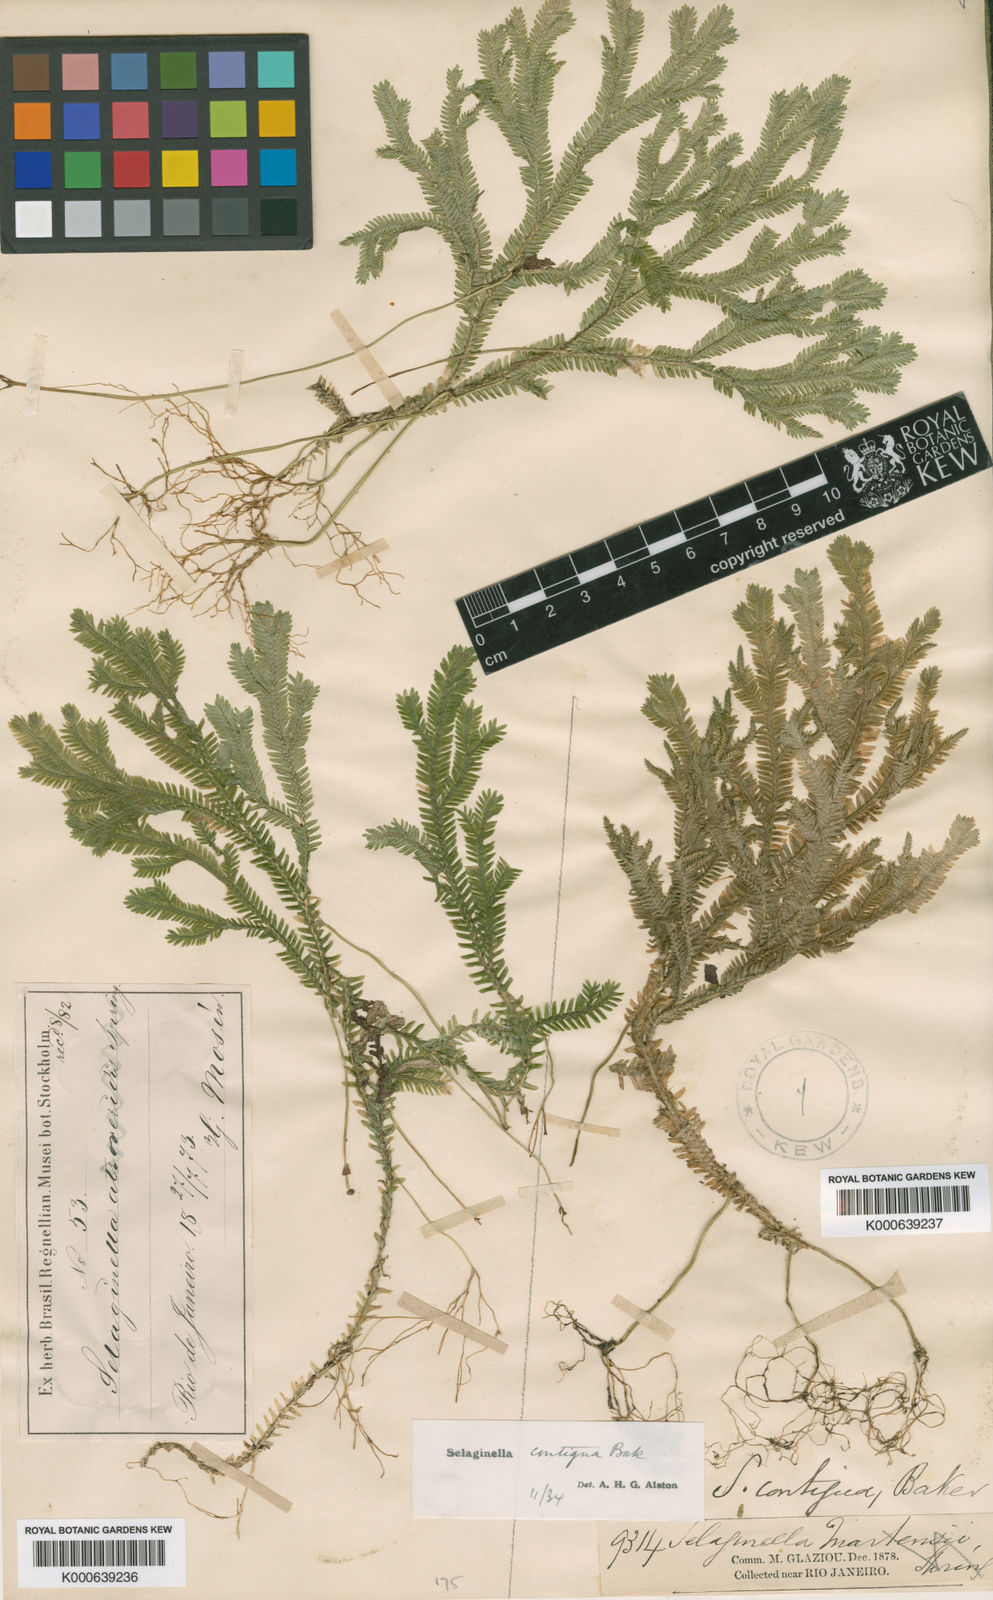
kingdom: Plantae
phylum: Tracheophyta
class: Lycopodiopsida
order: Selaginellales
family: Selaginellaceae
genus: Selaginella
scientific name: Selaginella contigua
